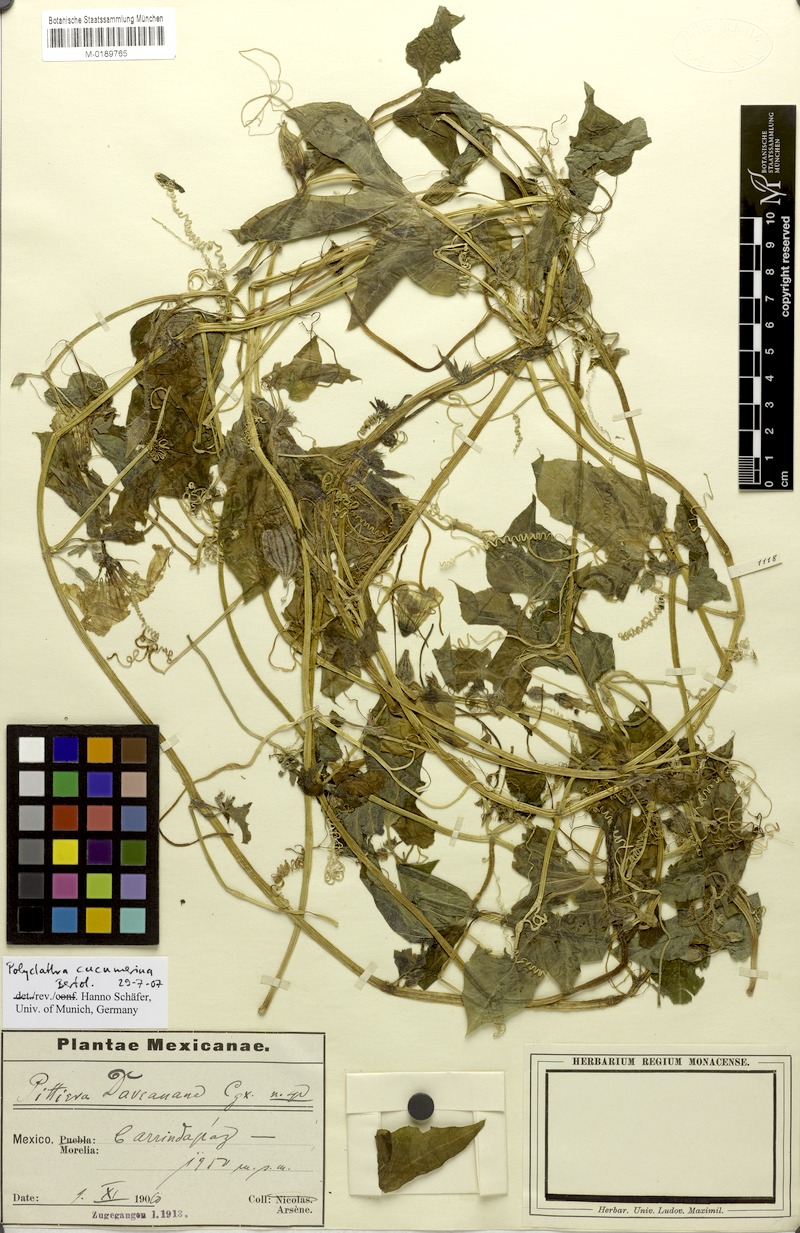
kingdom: Plantae
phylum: Tracheophyta
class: Magnoliopsida
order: Cucurbitales
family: Cucurbitaceae
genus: Polyclathra
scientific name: Polyclathra cucumerina
